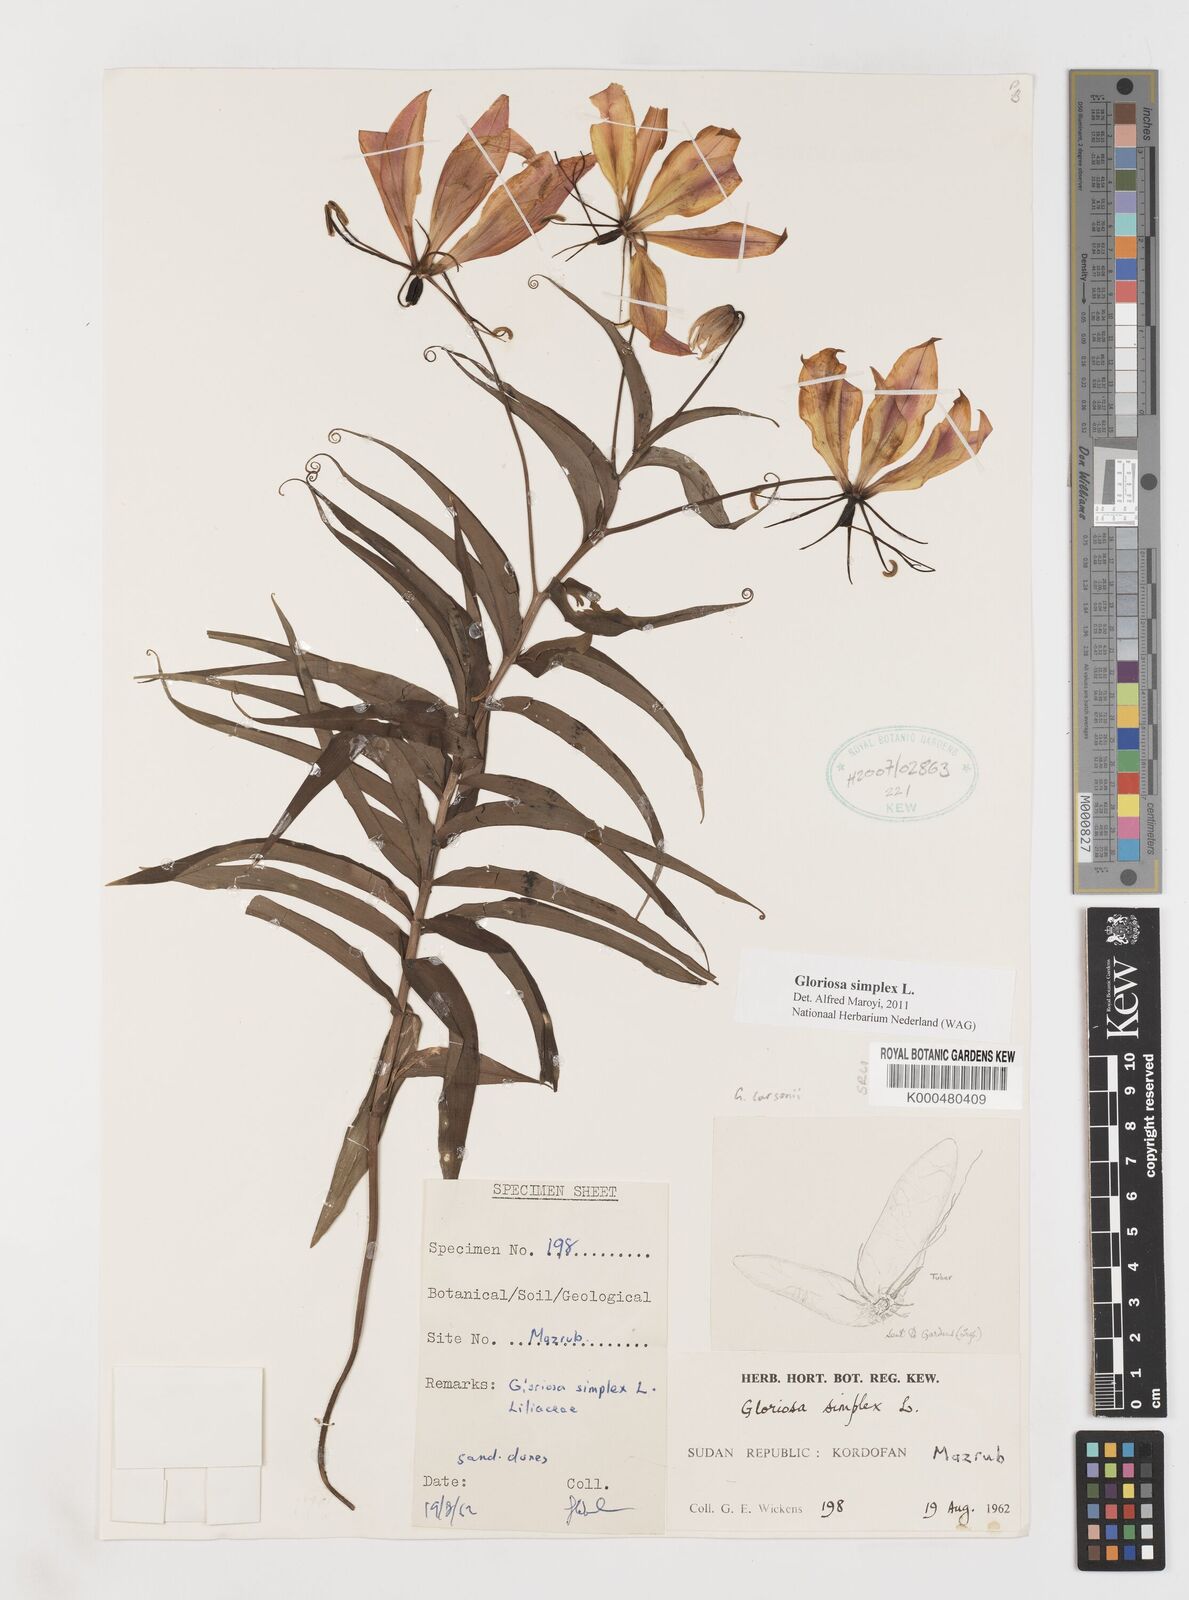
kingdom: Plantae
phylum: Tracheophyta
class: Liliopsida
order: Liliales
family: Colchicaceae
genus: Gloriosa
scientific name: Gloriosa simplex
